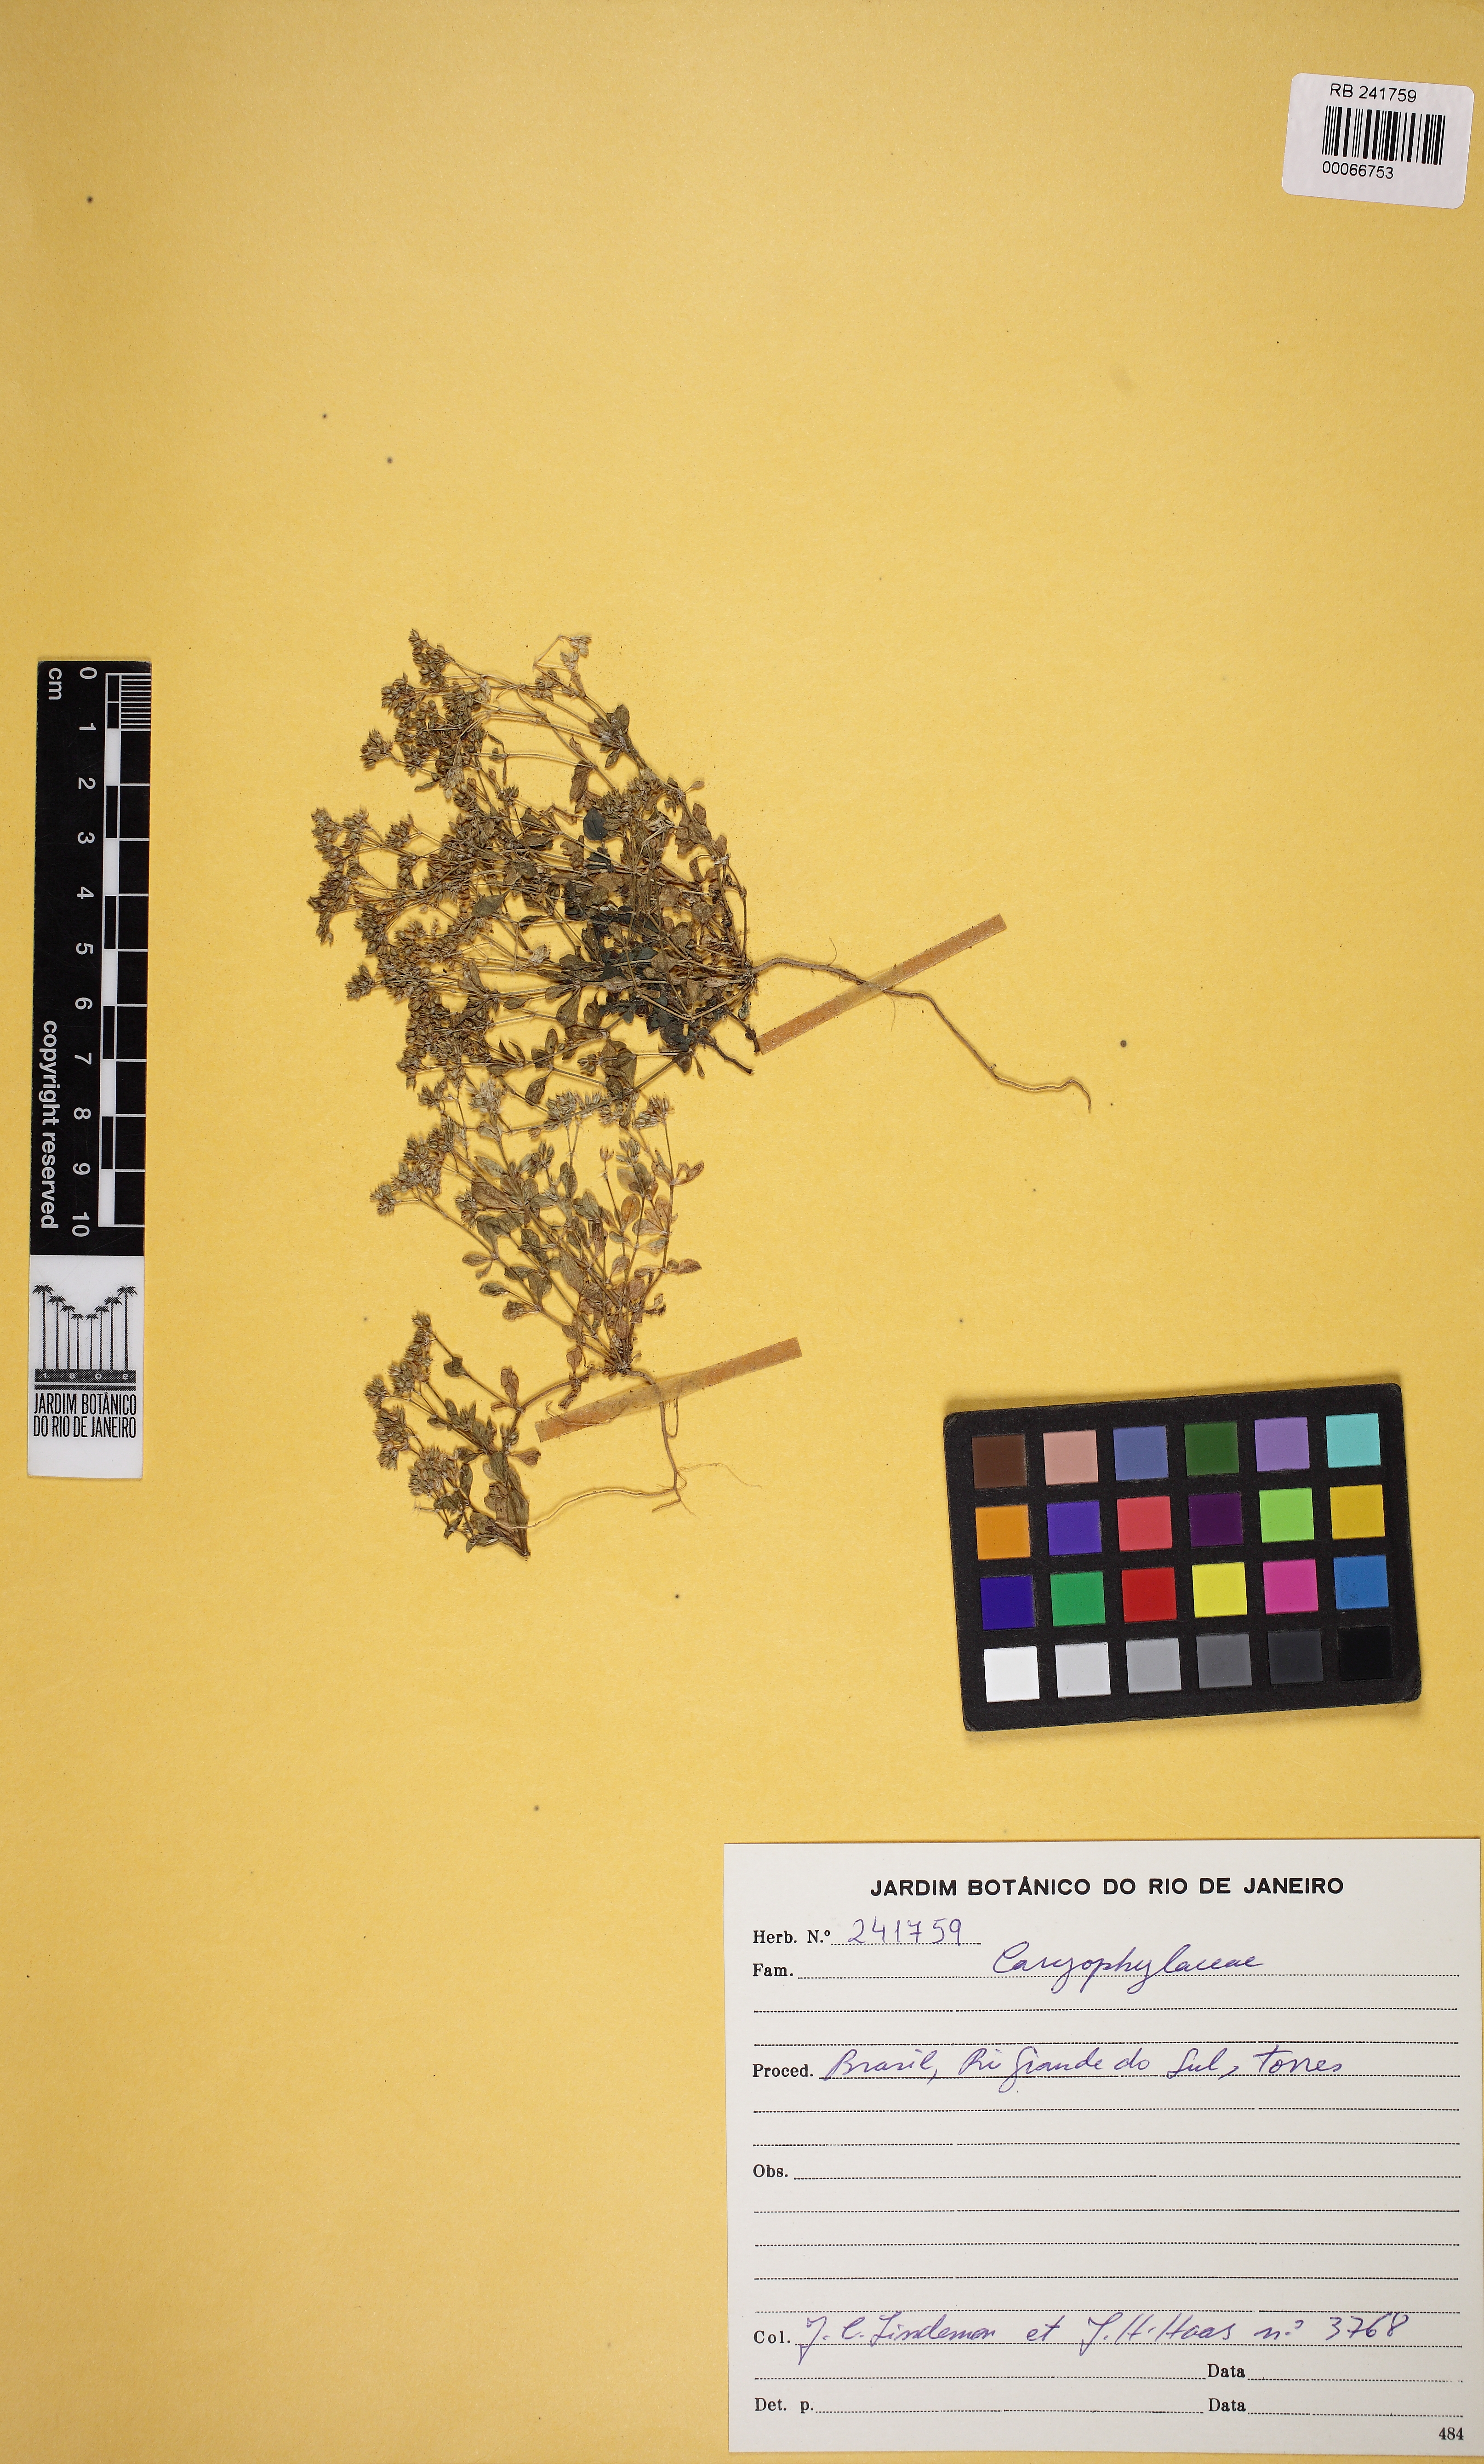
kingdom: Plantae
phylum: Tracheophyta
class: Magnoliopsida
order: Caryophyllales
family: Caryophyllaceae
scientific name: Caryophyllaceae
